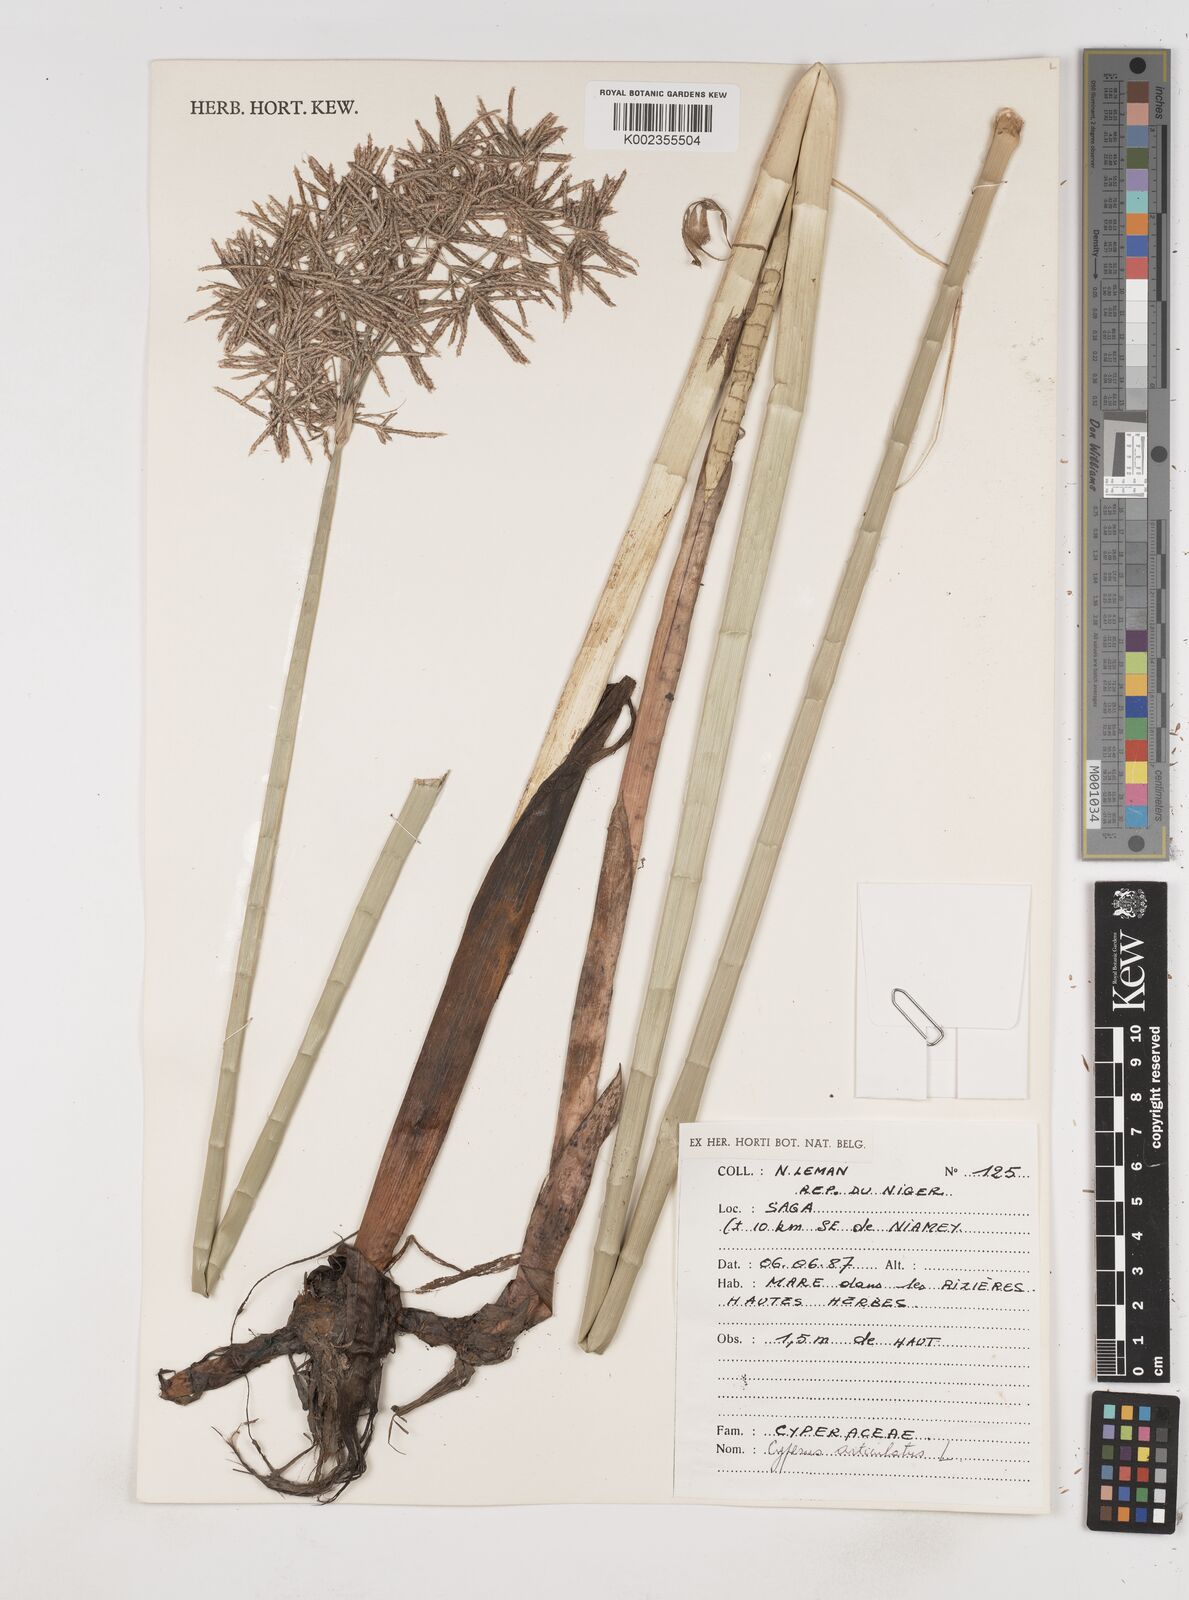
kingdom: Plantae
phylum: Tracheophyta
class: Liliopsida
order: Poales
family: Cyperaceae
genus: Cyperus
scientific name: Cyperus articulatus
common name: Jointed flatsedge
